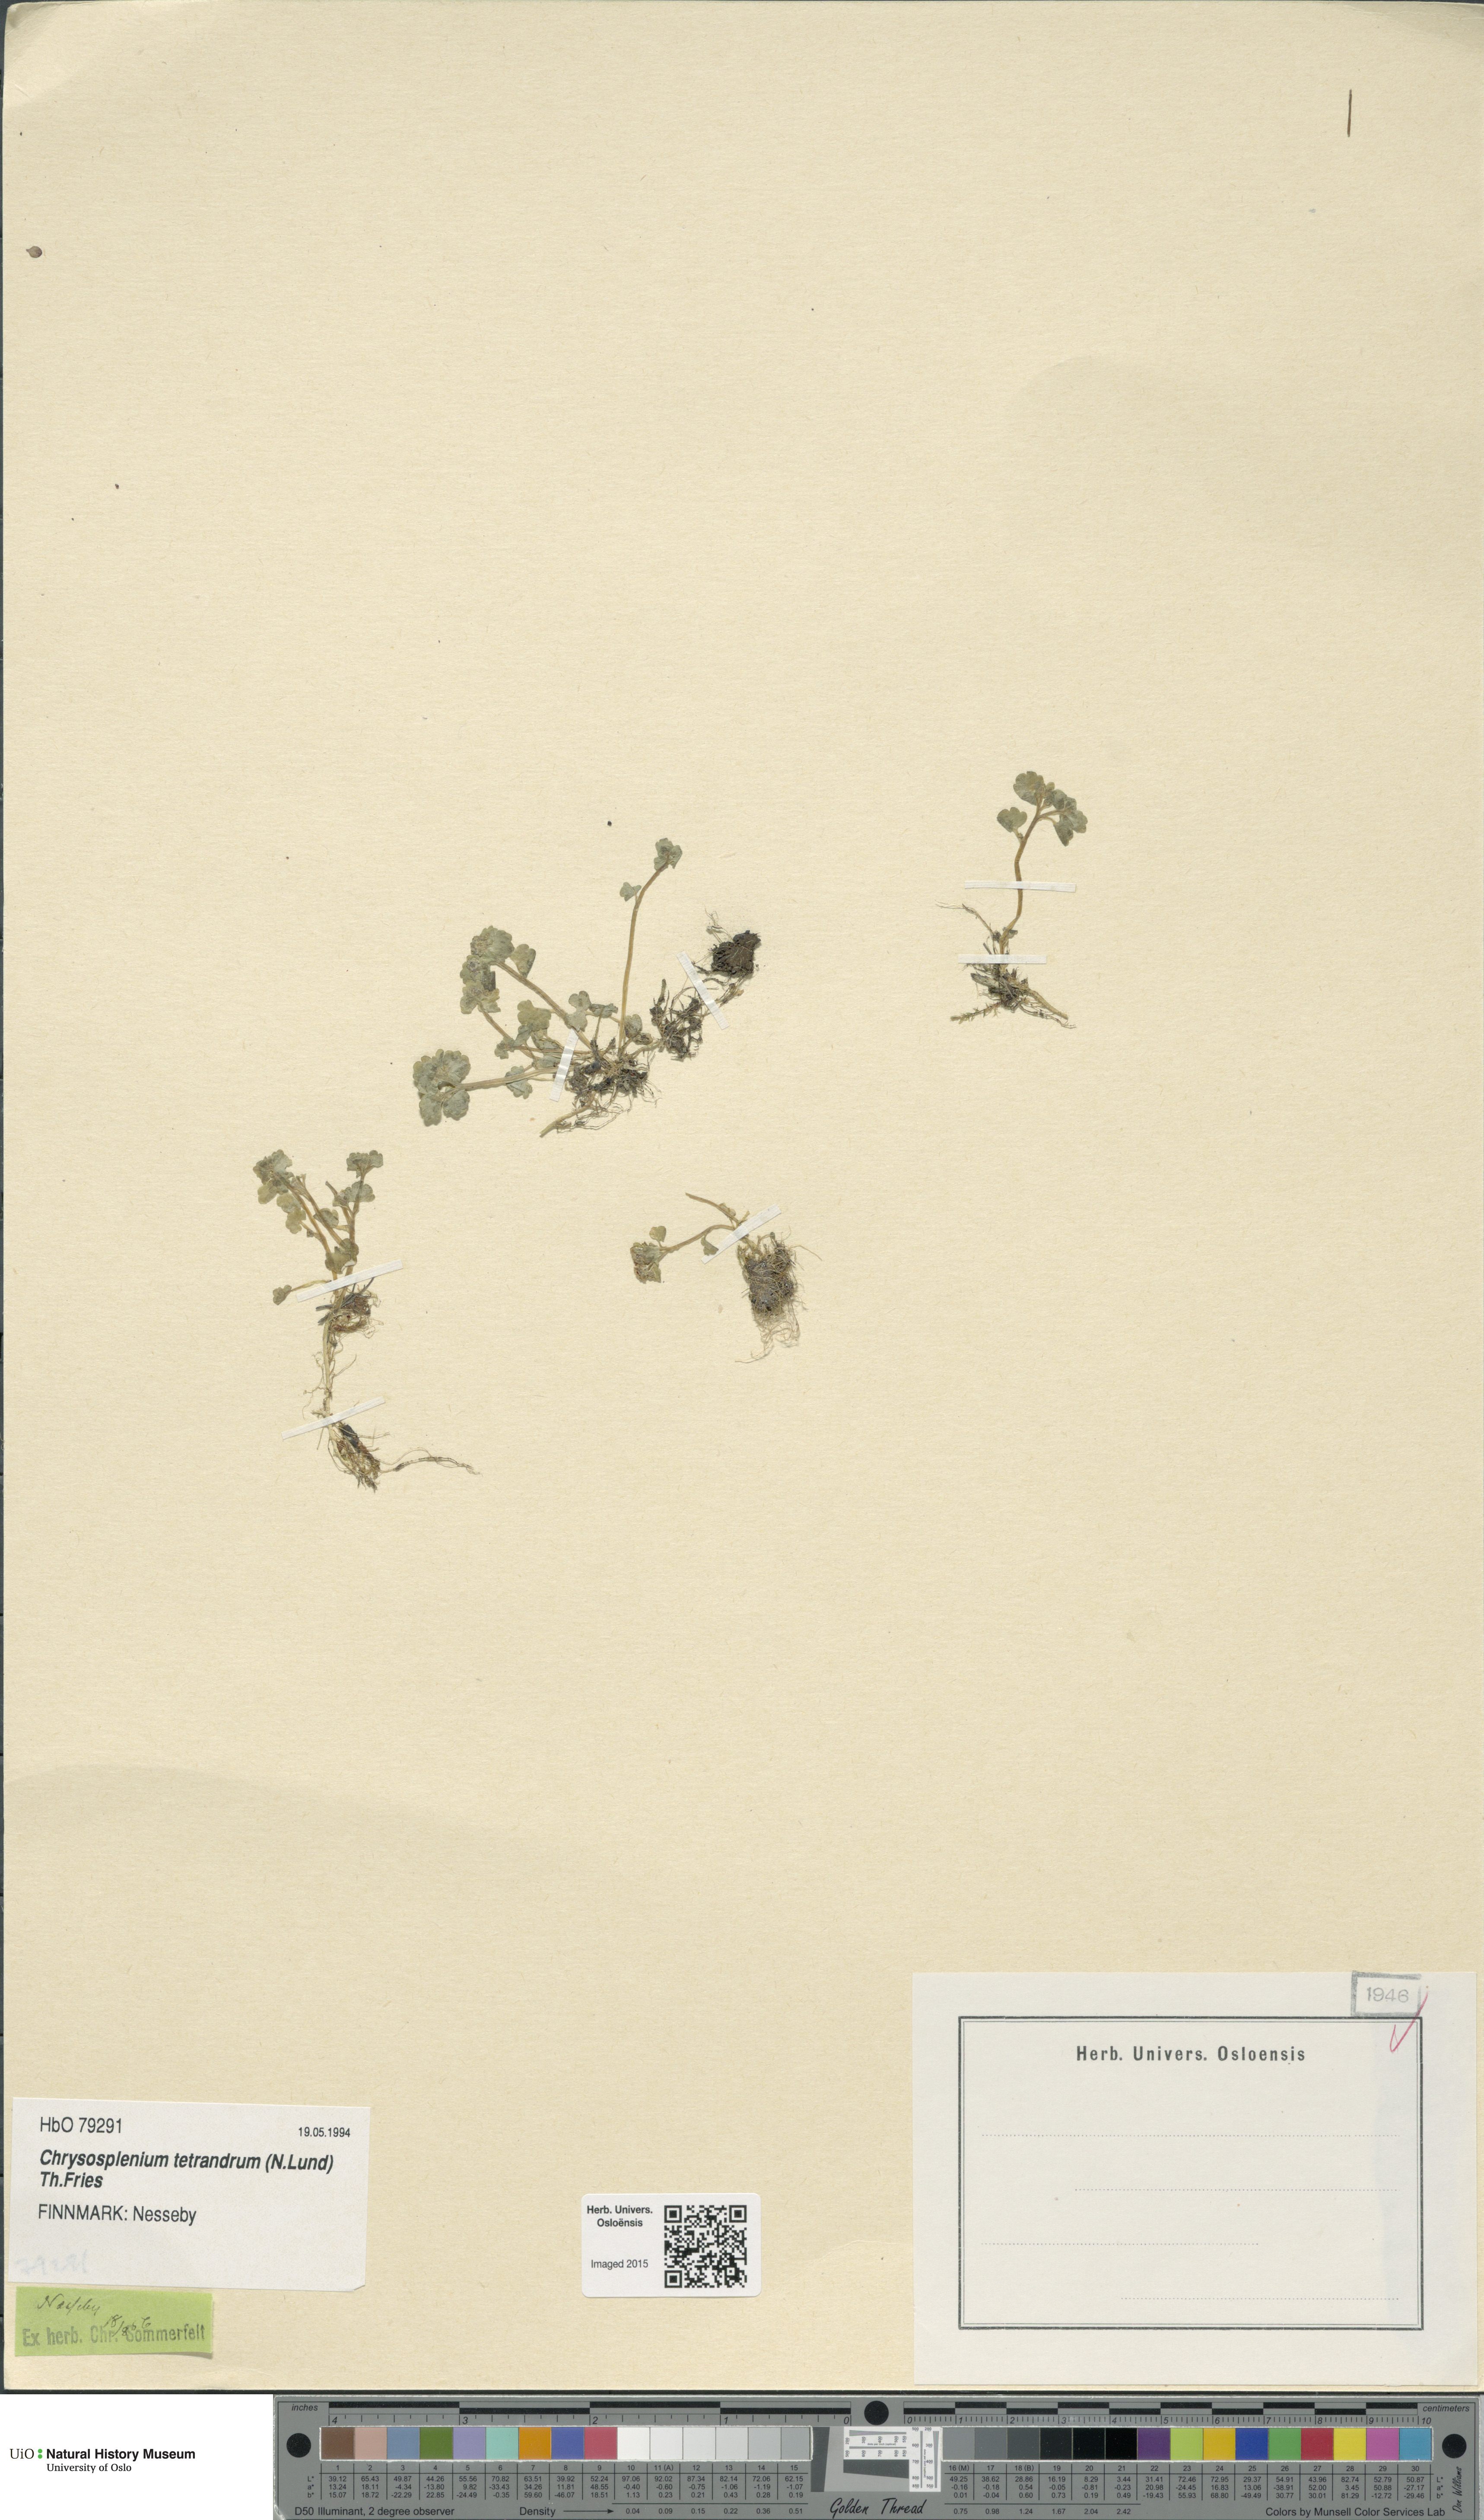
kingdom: Plantae
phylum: Tracheophyta
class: Magnoliopsida
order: Saxifragales
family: Saxifragaceae
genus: Chrysosplenium
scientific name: Chrysosplenium tetrandrum
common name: Green saxifrage
